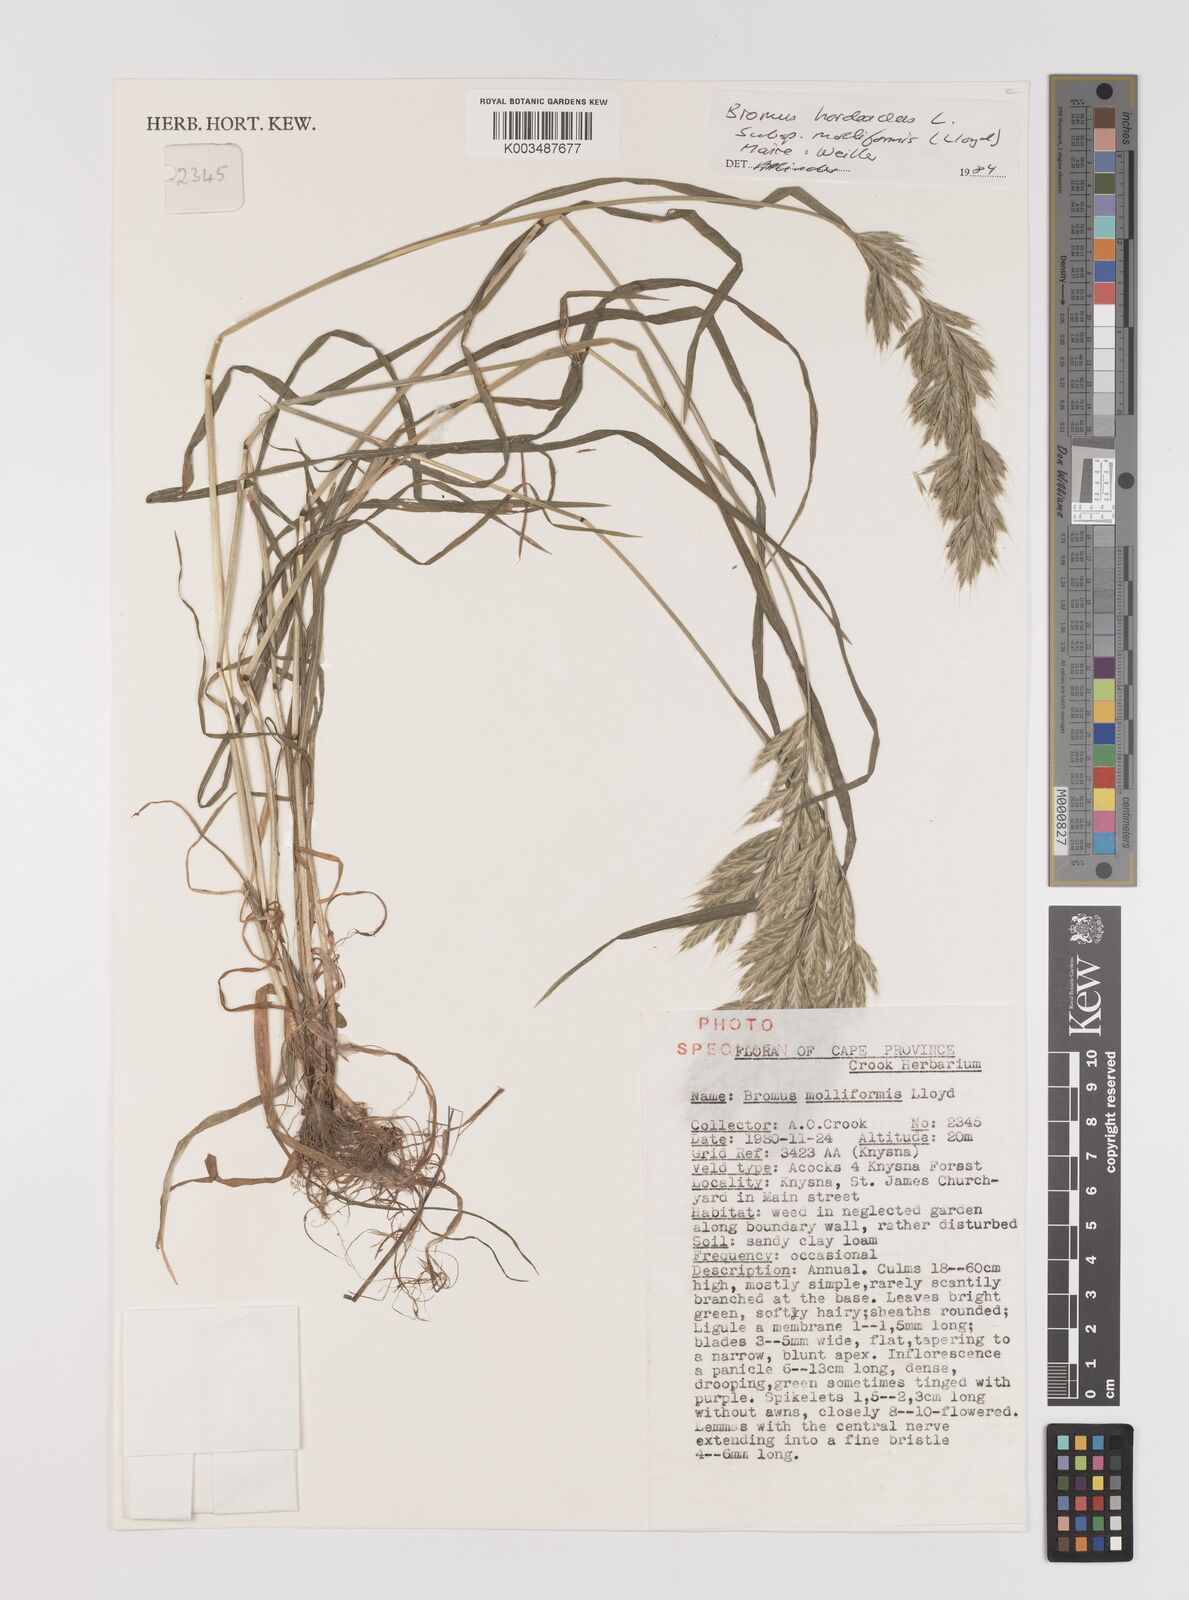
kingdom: Plantae
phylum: Tracheophyta
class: Liliopsida
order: Poales
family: Poaceae
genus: Bromus
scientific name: Bromus hordeaceus
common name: Soft brome
